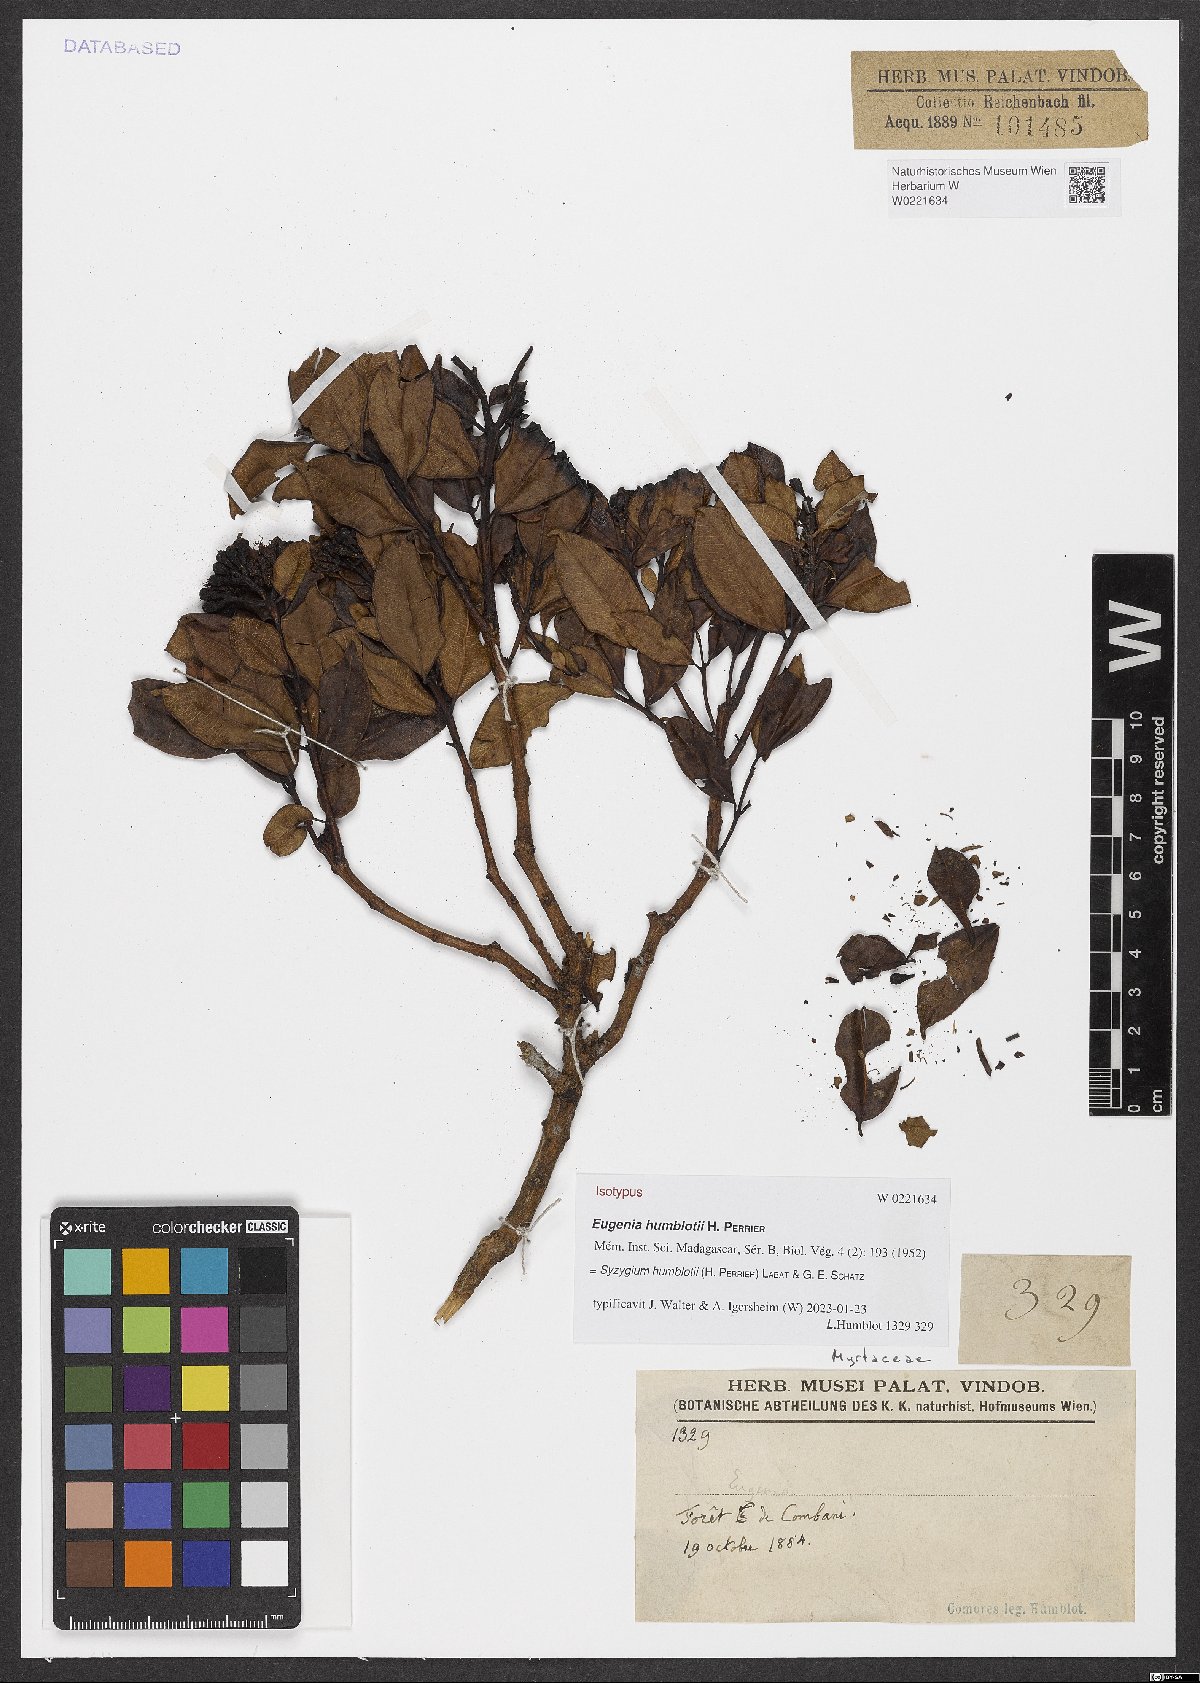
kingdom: Plantae
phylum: Tracheophyta
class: Magnoliopsida
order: Myrtales
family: Myrtaceae
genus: Syzygium
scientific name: Syzygium humblotii
